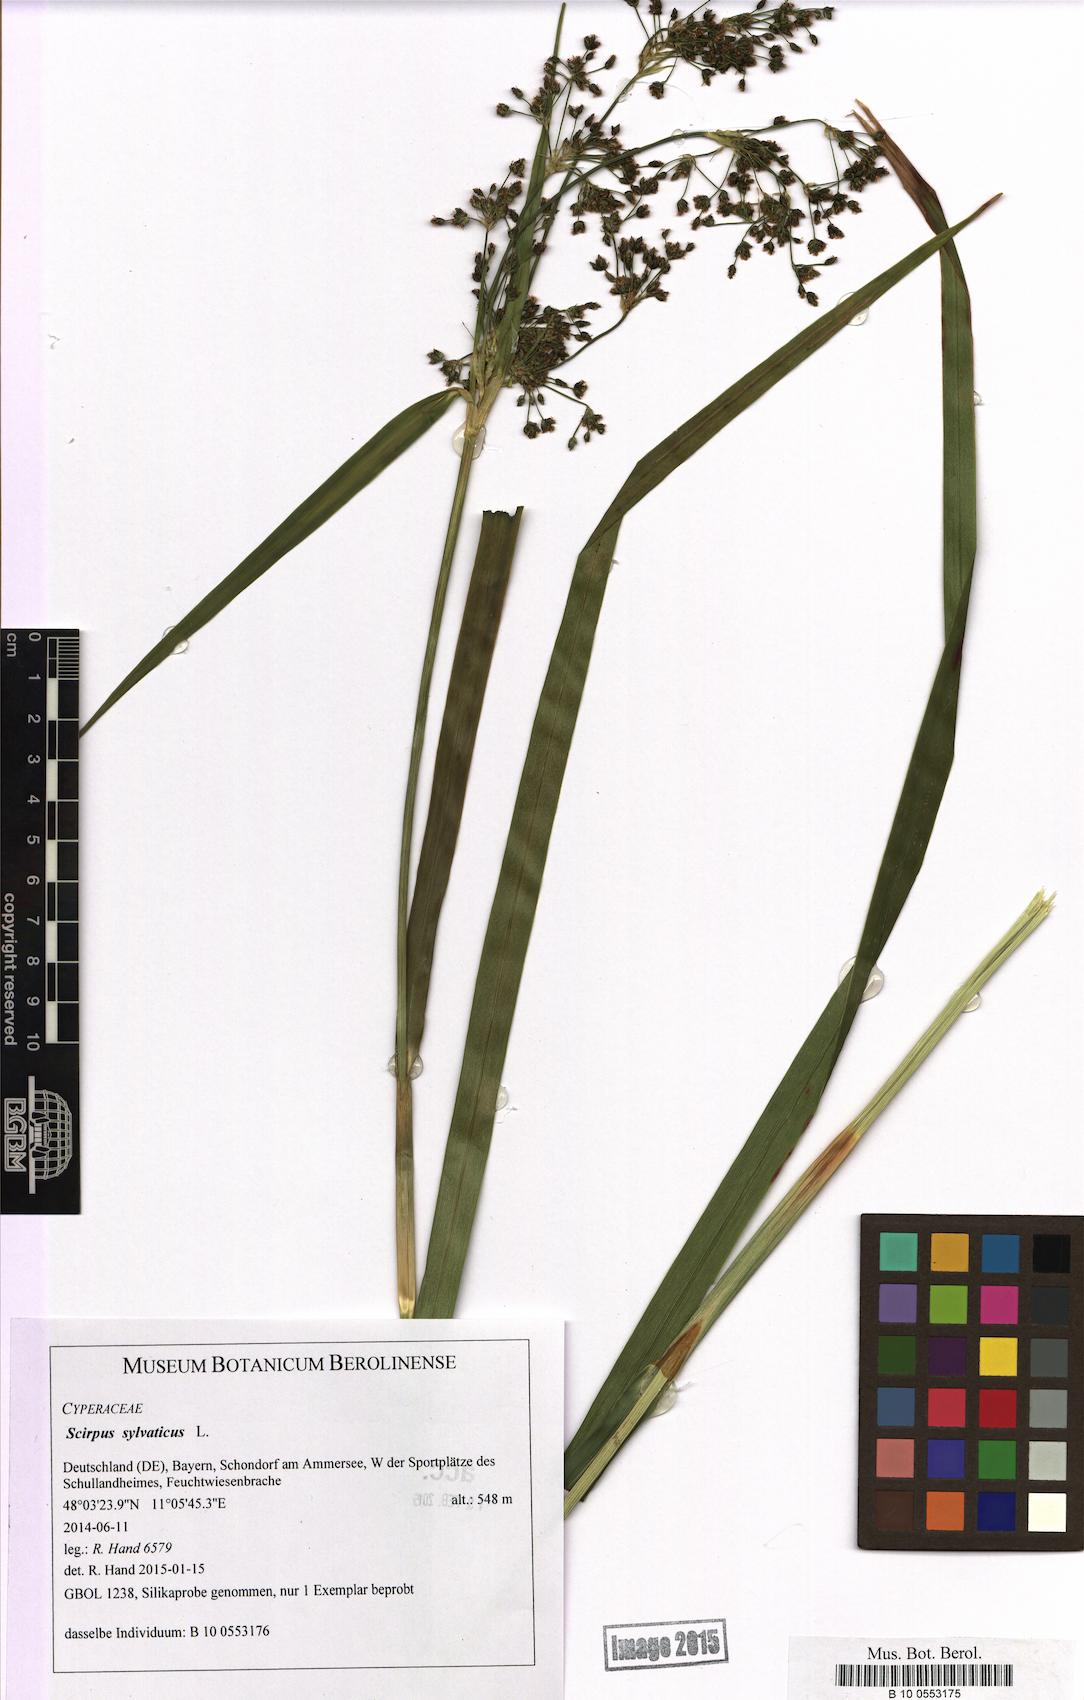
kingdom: Plantae
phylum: Tracheophyta
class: Liliopsida
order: Poales
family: Cyperaceae
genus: Scirpus
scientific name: Scirpus sylvaticus
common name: Wood club-rush
